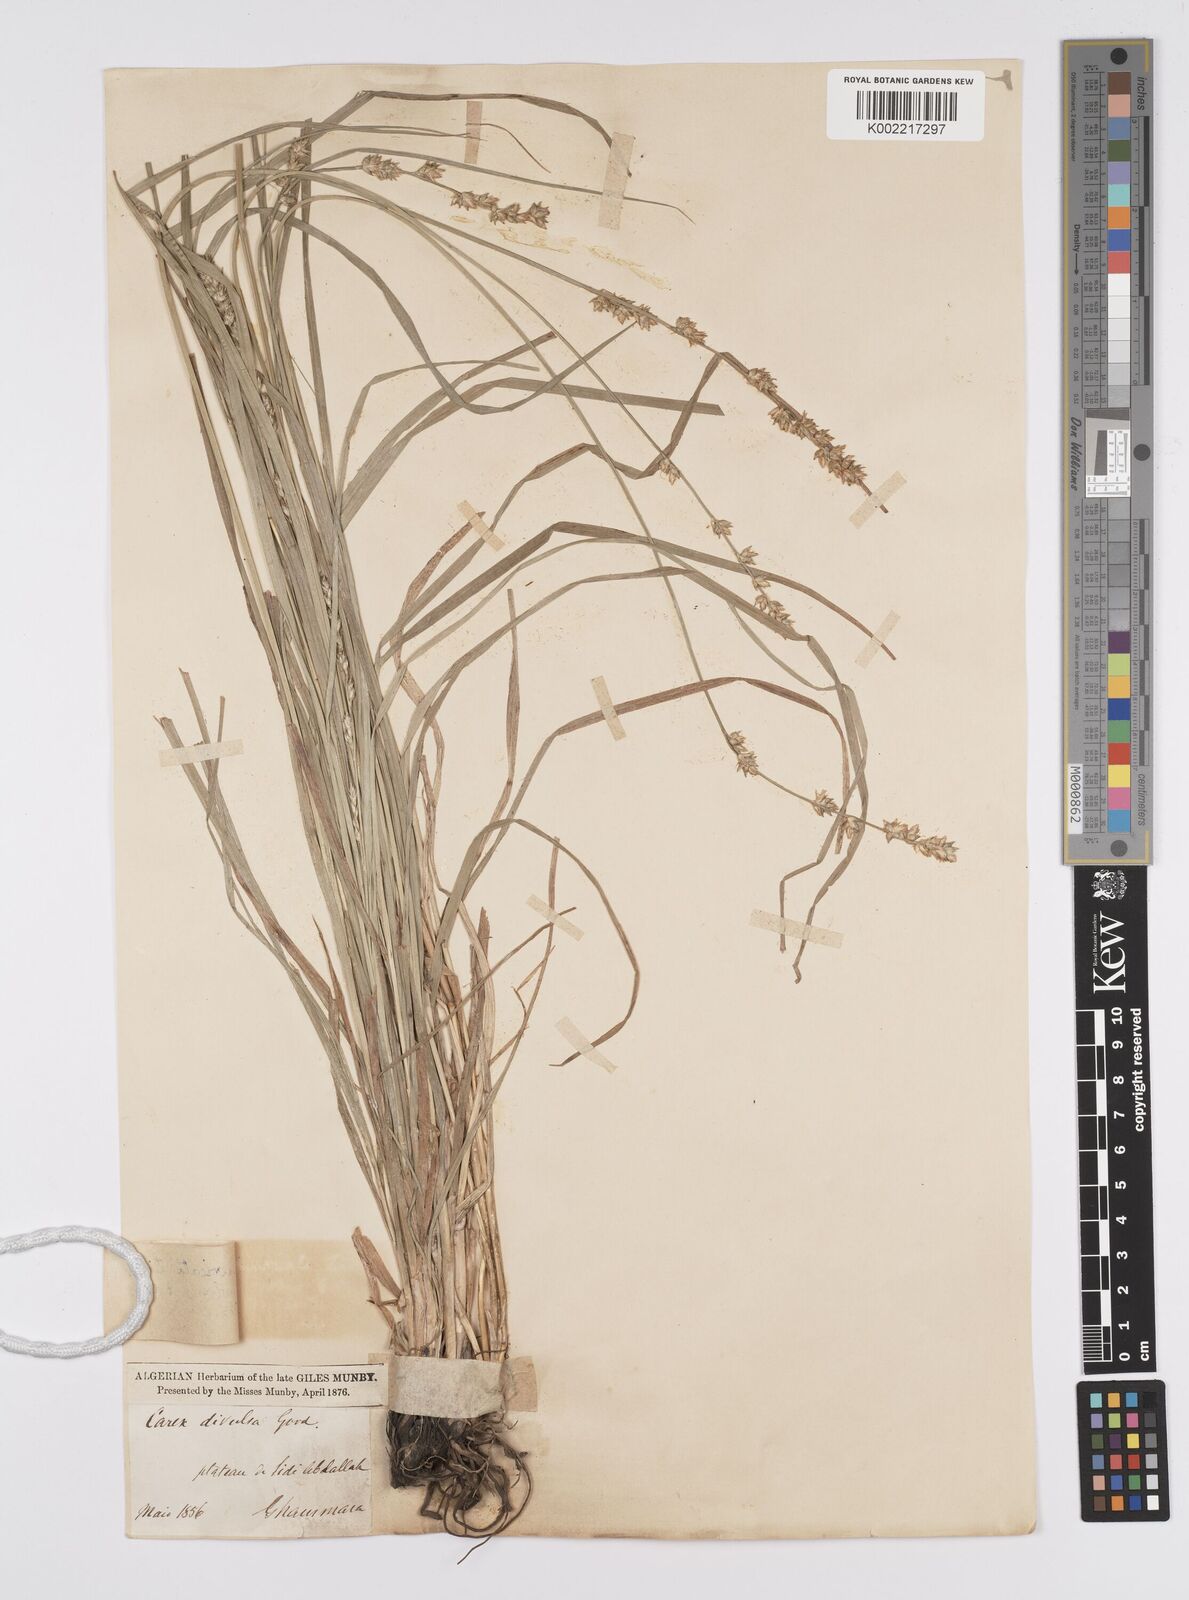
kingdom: Plantae
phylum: Tracheophyta
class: Liliopsida
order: Poales
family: Cyperaceae
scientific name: Cyperaceae
